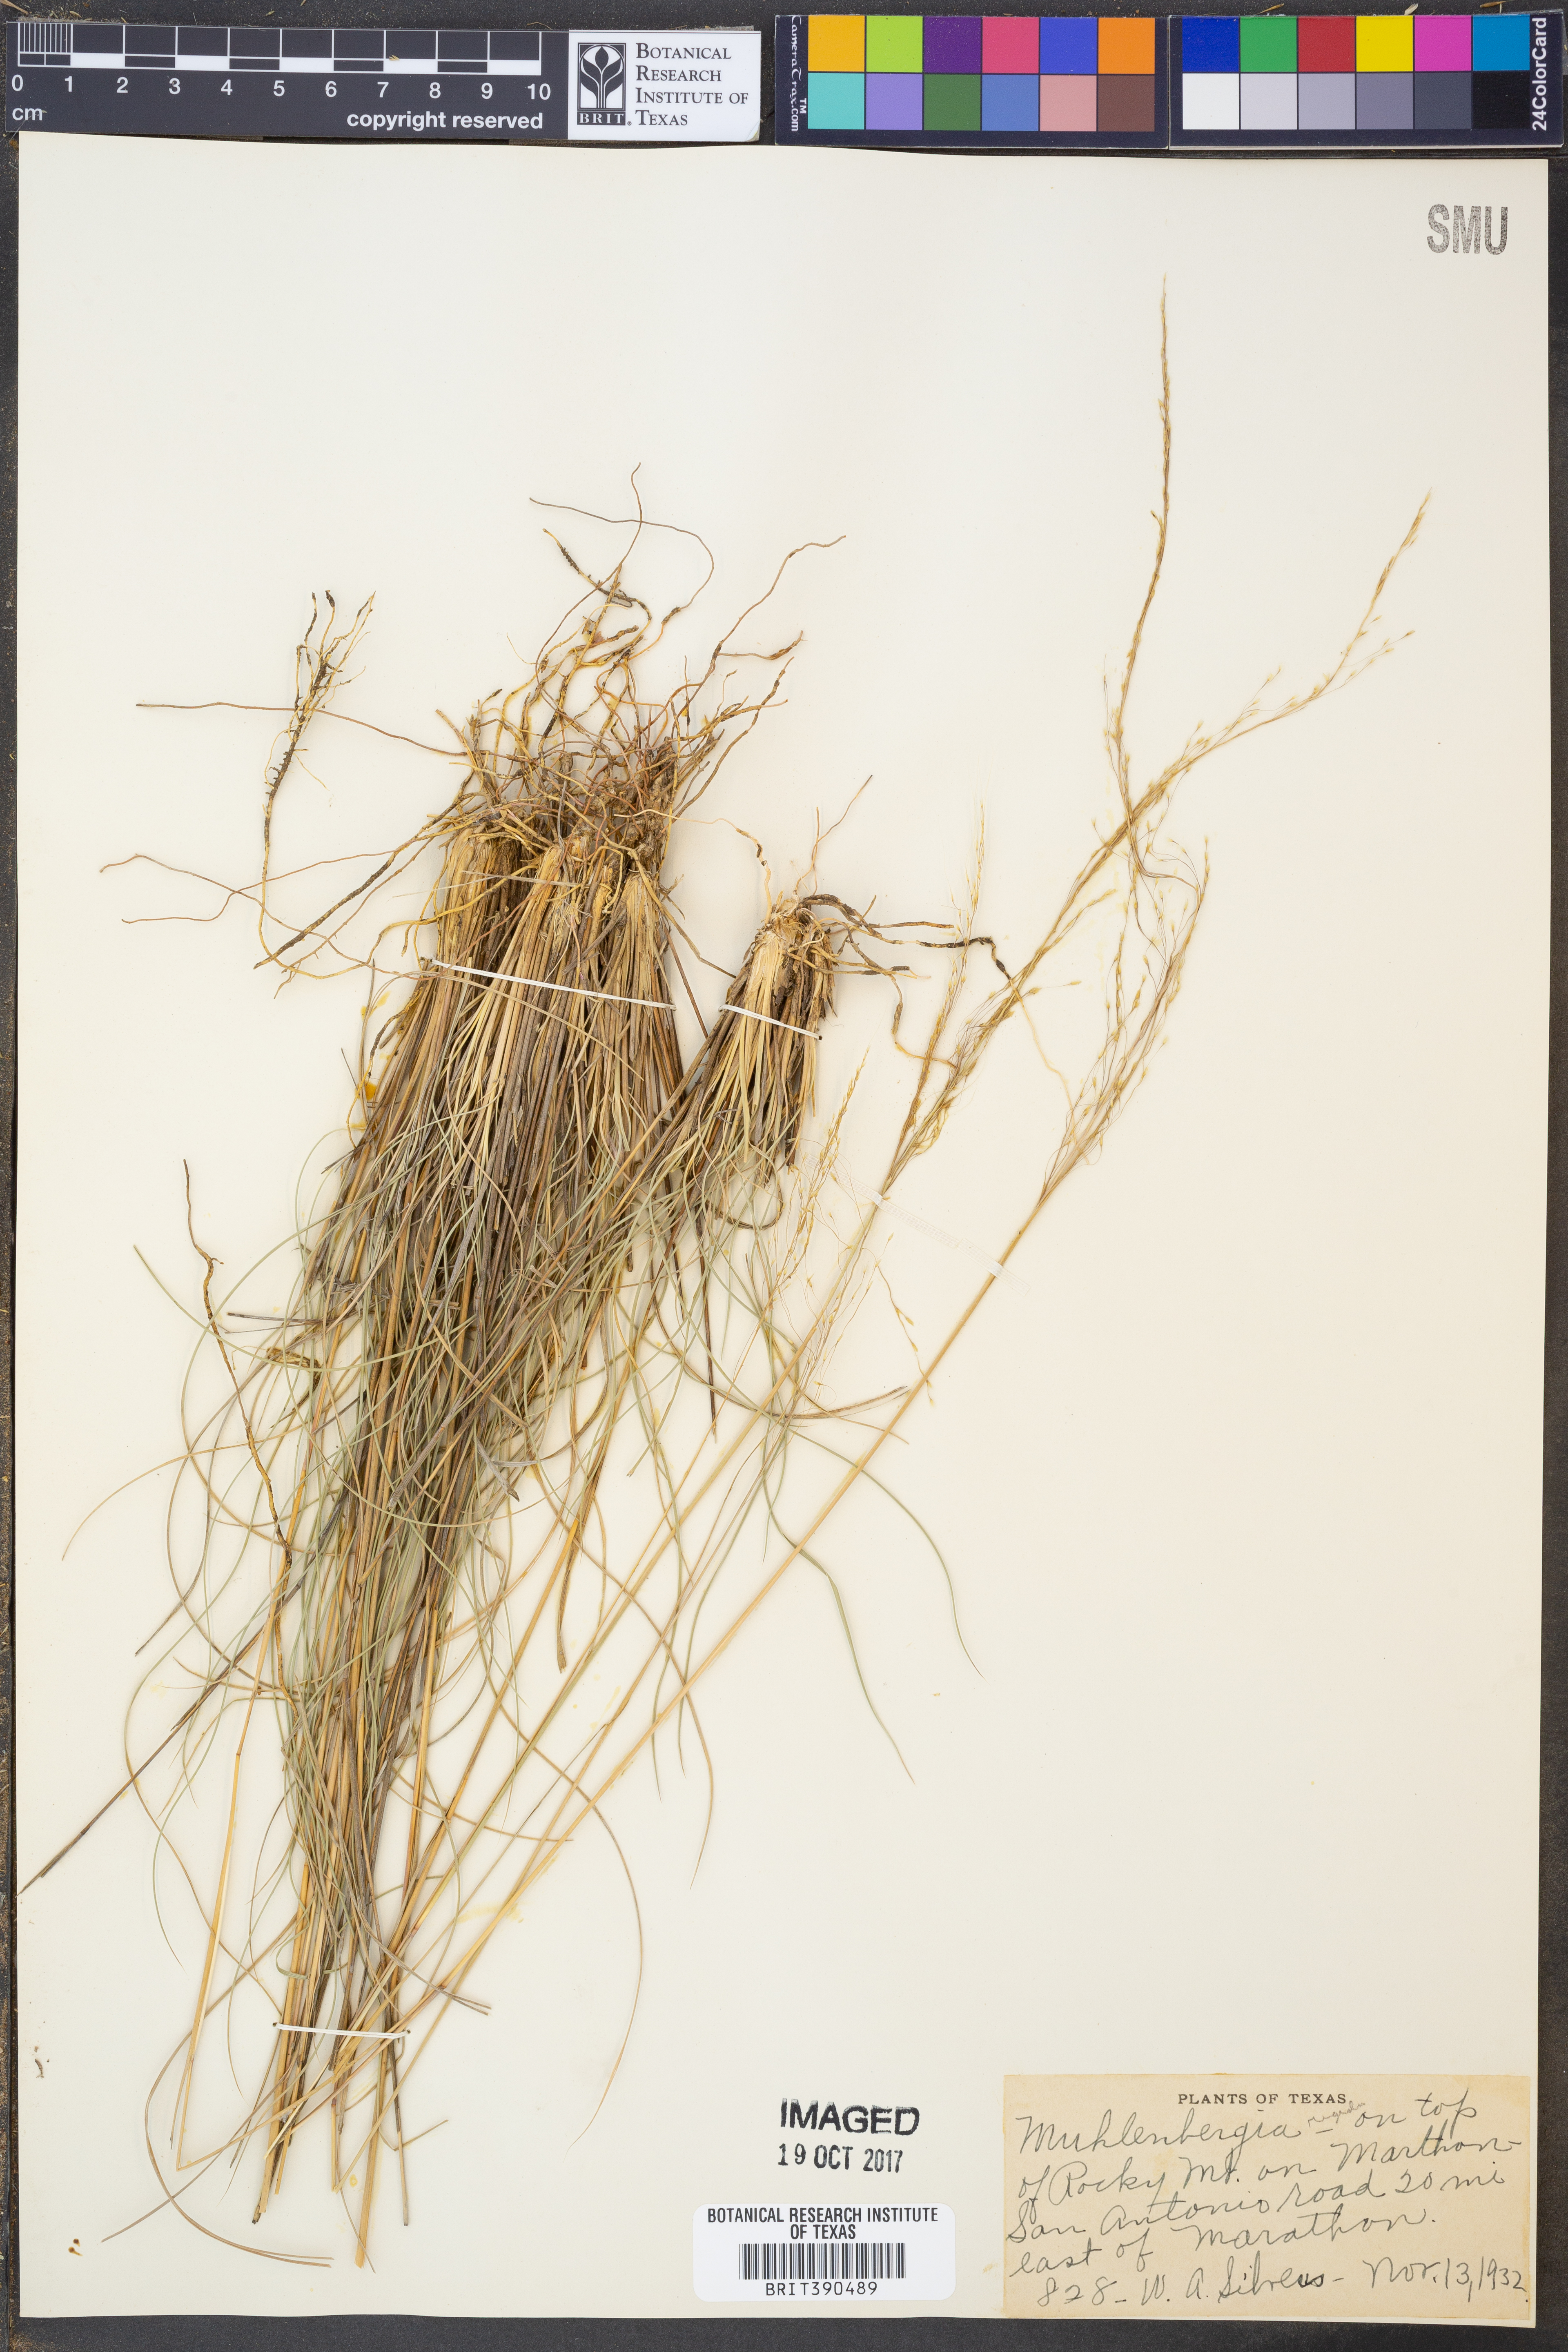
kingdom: Plantae
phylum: Tracheophyta
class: Liliopsida
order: Poales
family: Poaceae
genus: Muhlenbergia
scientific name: Muhlenbergia rigida
